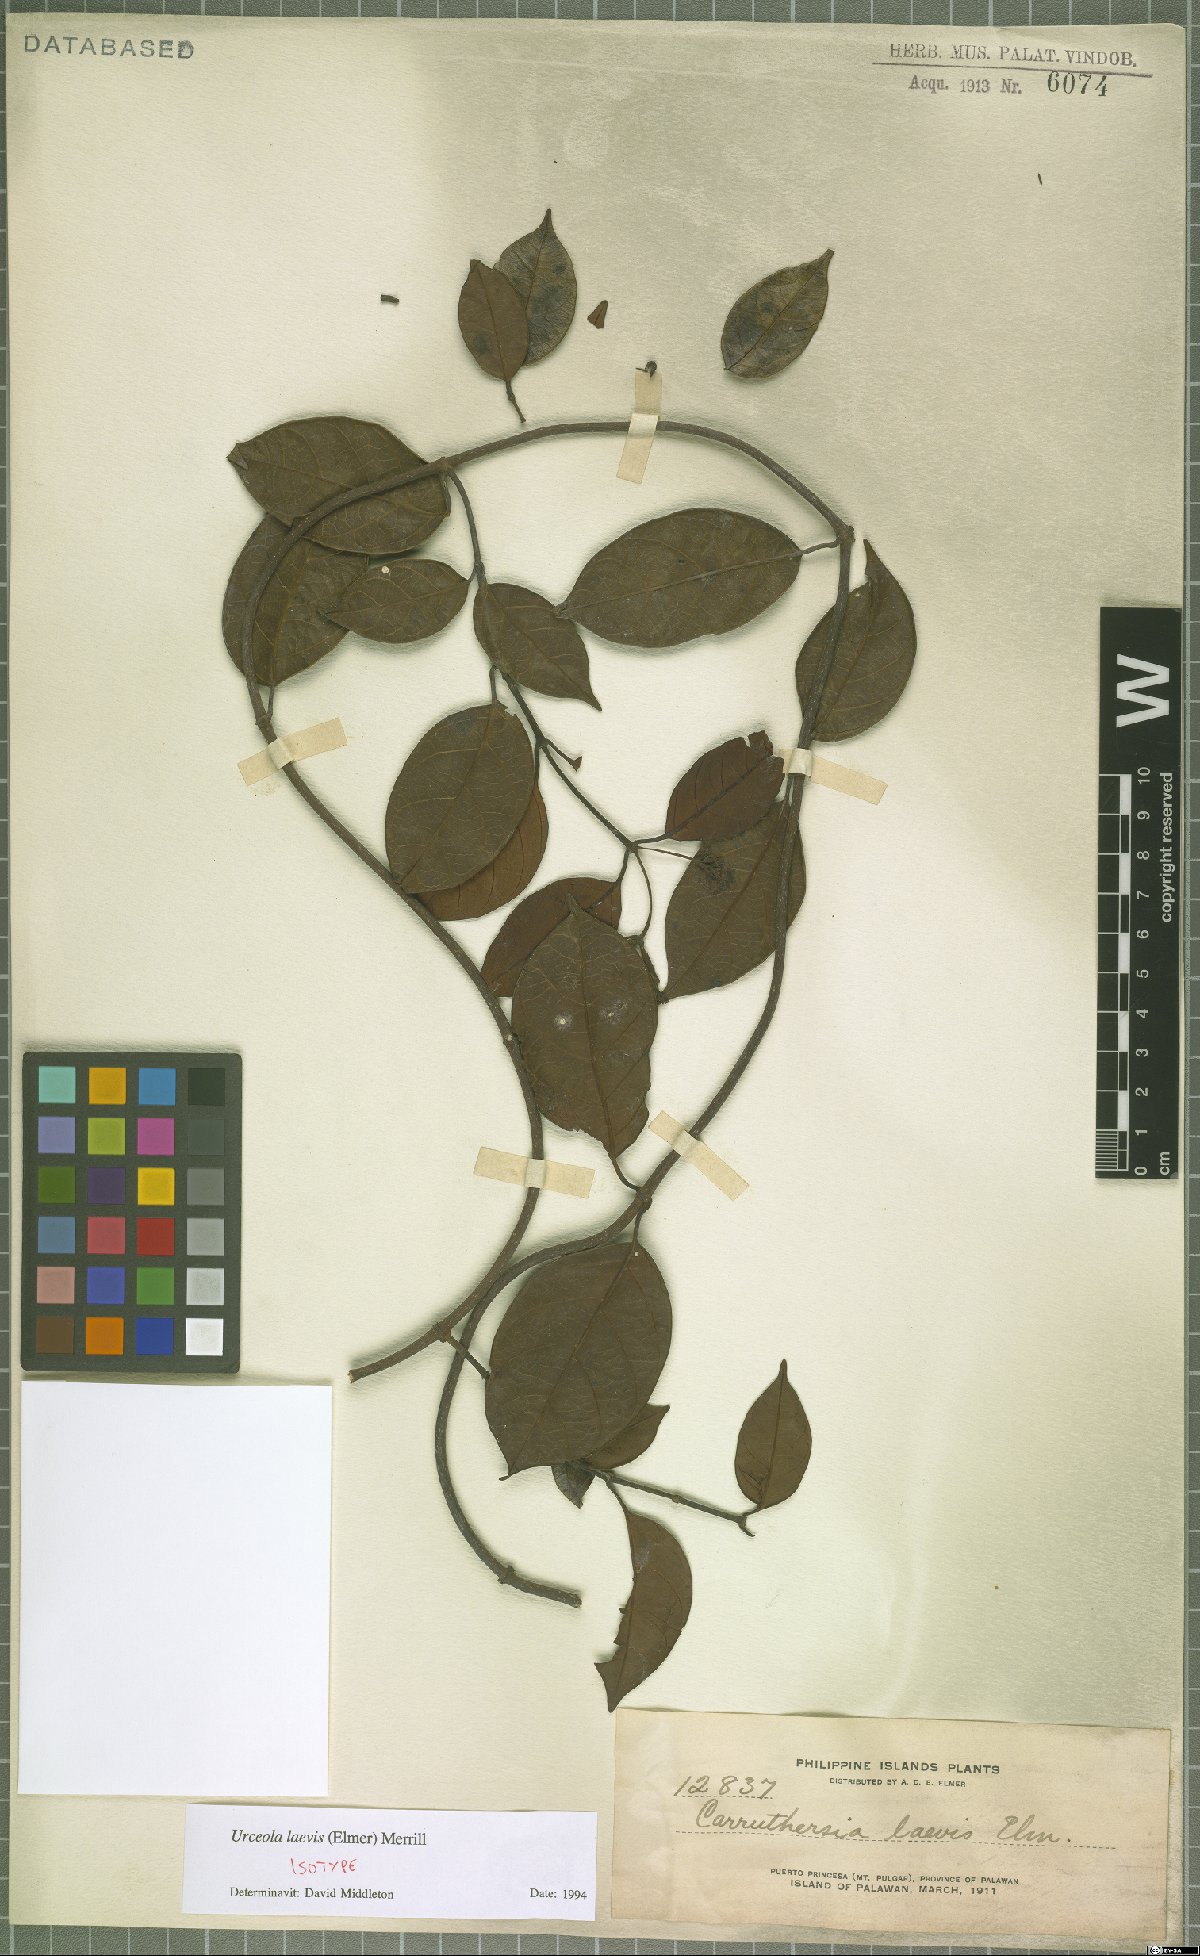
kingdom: Plantae
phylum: Tracheophyta
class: Magnoliopsida
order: Gentianales
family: Apocynaceae
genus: Urceola
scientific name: Urceola laevis
